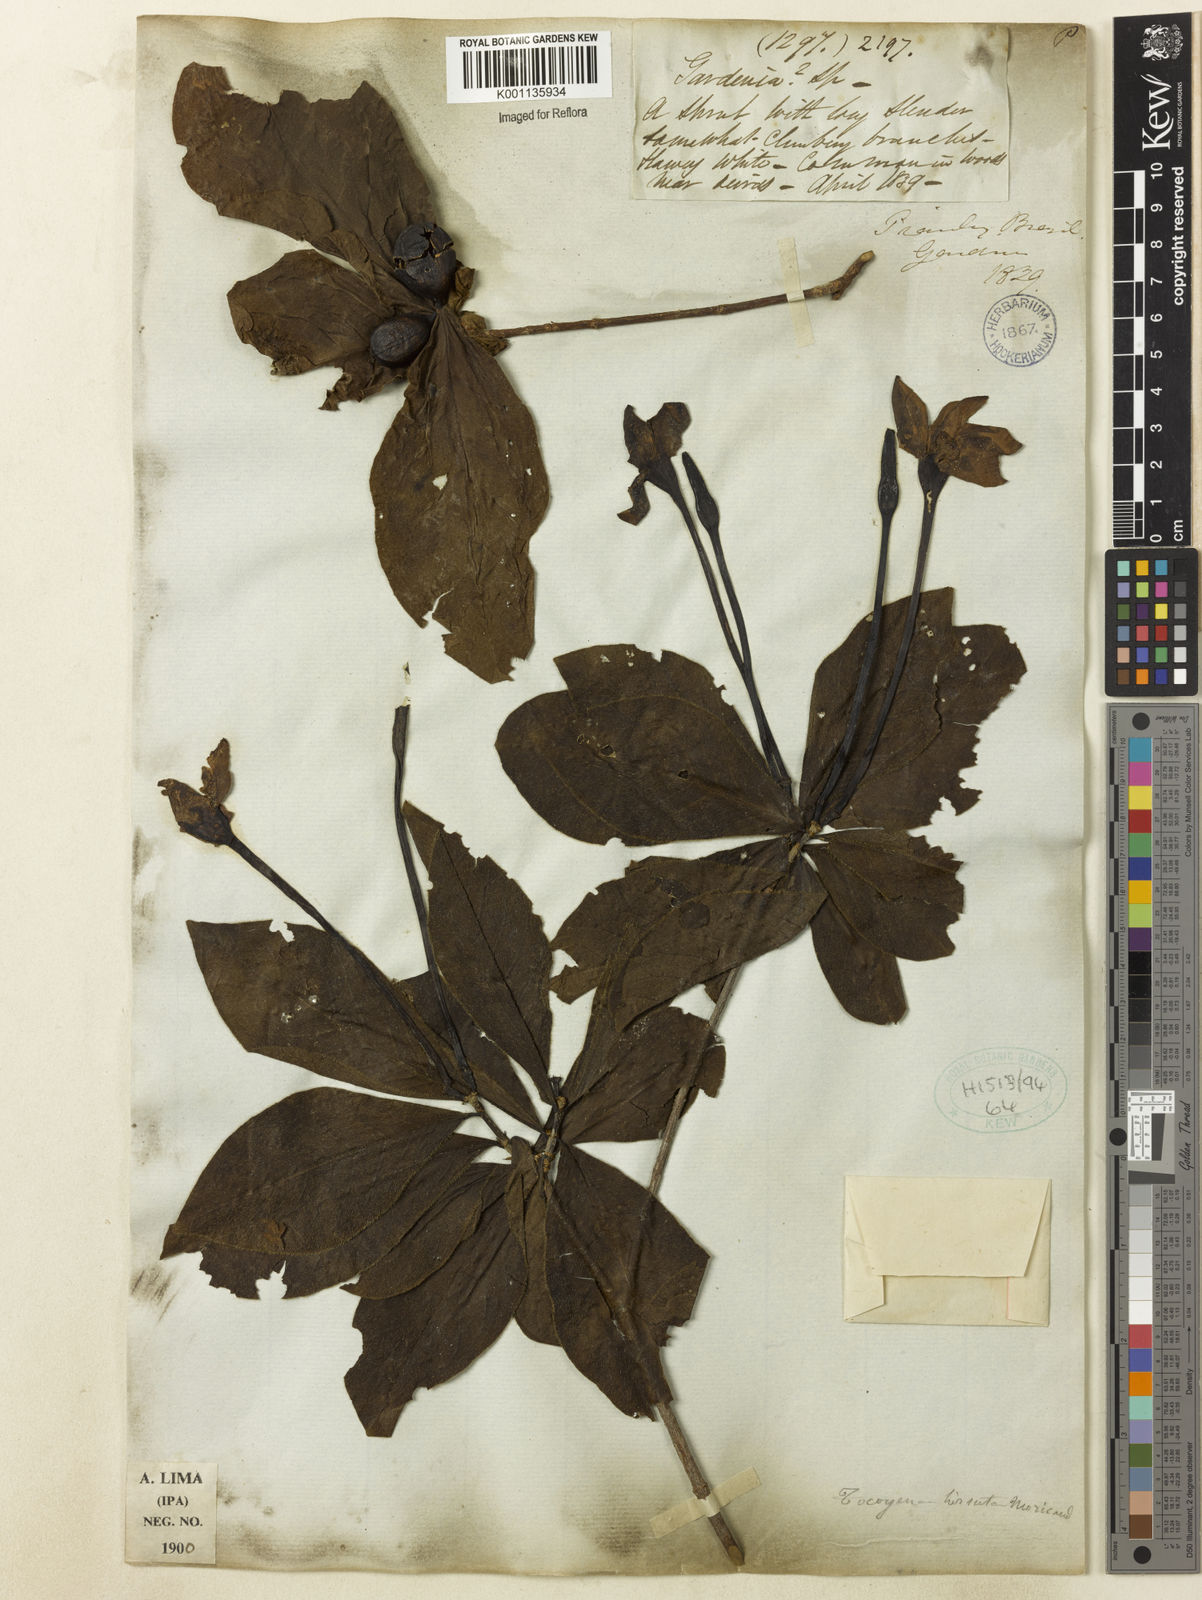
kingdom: Plantae
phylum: Tracheophyta
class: Magnoliopsida
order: Gentianales
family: Rubiaceae
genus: Tocoyena
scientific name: Tocoyena formosa
